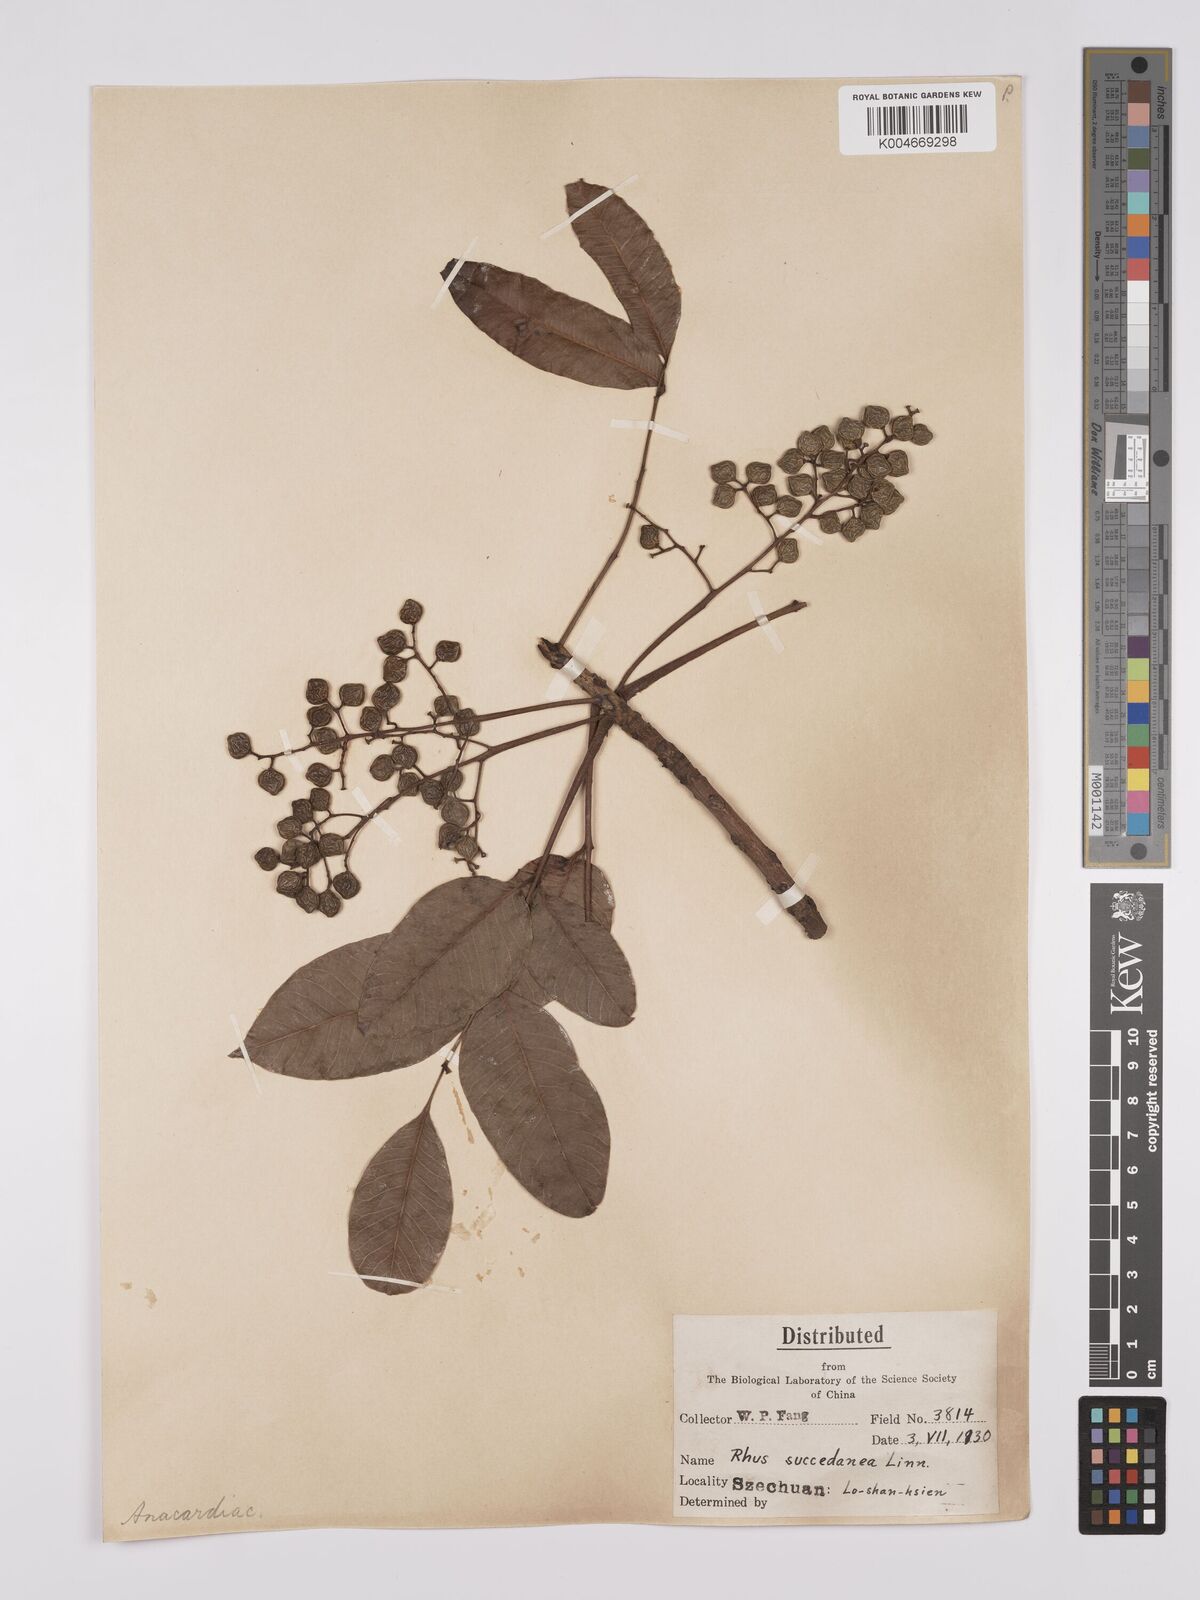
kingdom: Plantae
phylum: Tracheophyta
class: Magnoliopsida
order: Sapindales
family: Anacardiaceae
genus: Toxicodendron
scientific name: Toxicodendron succedaneum
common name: Wax tree
